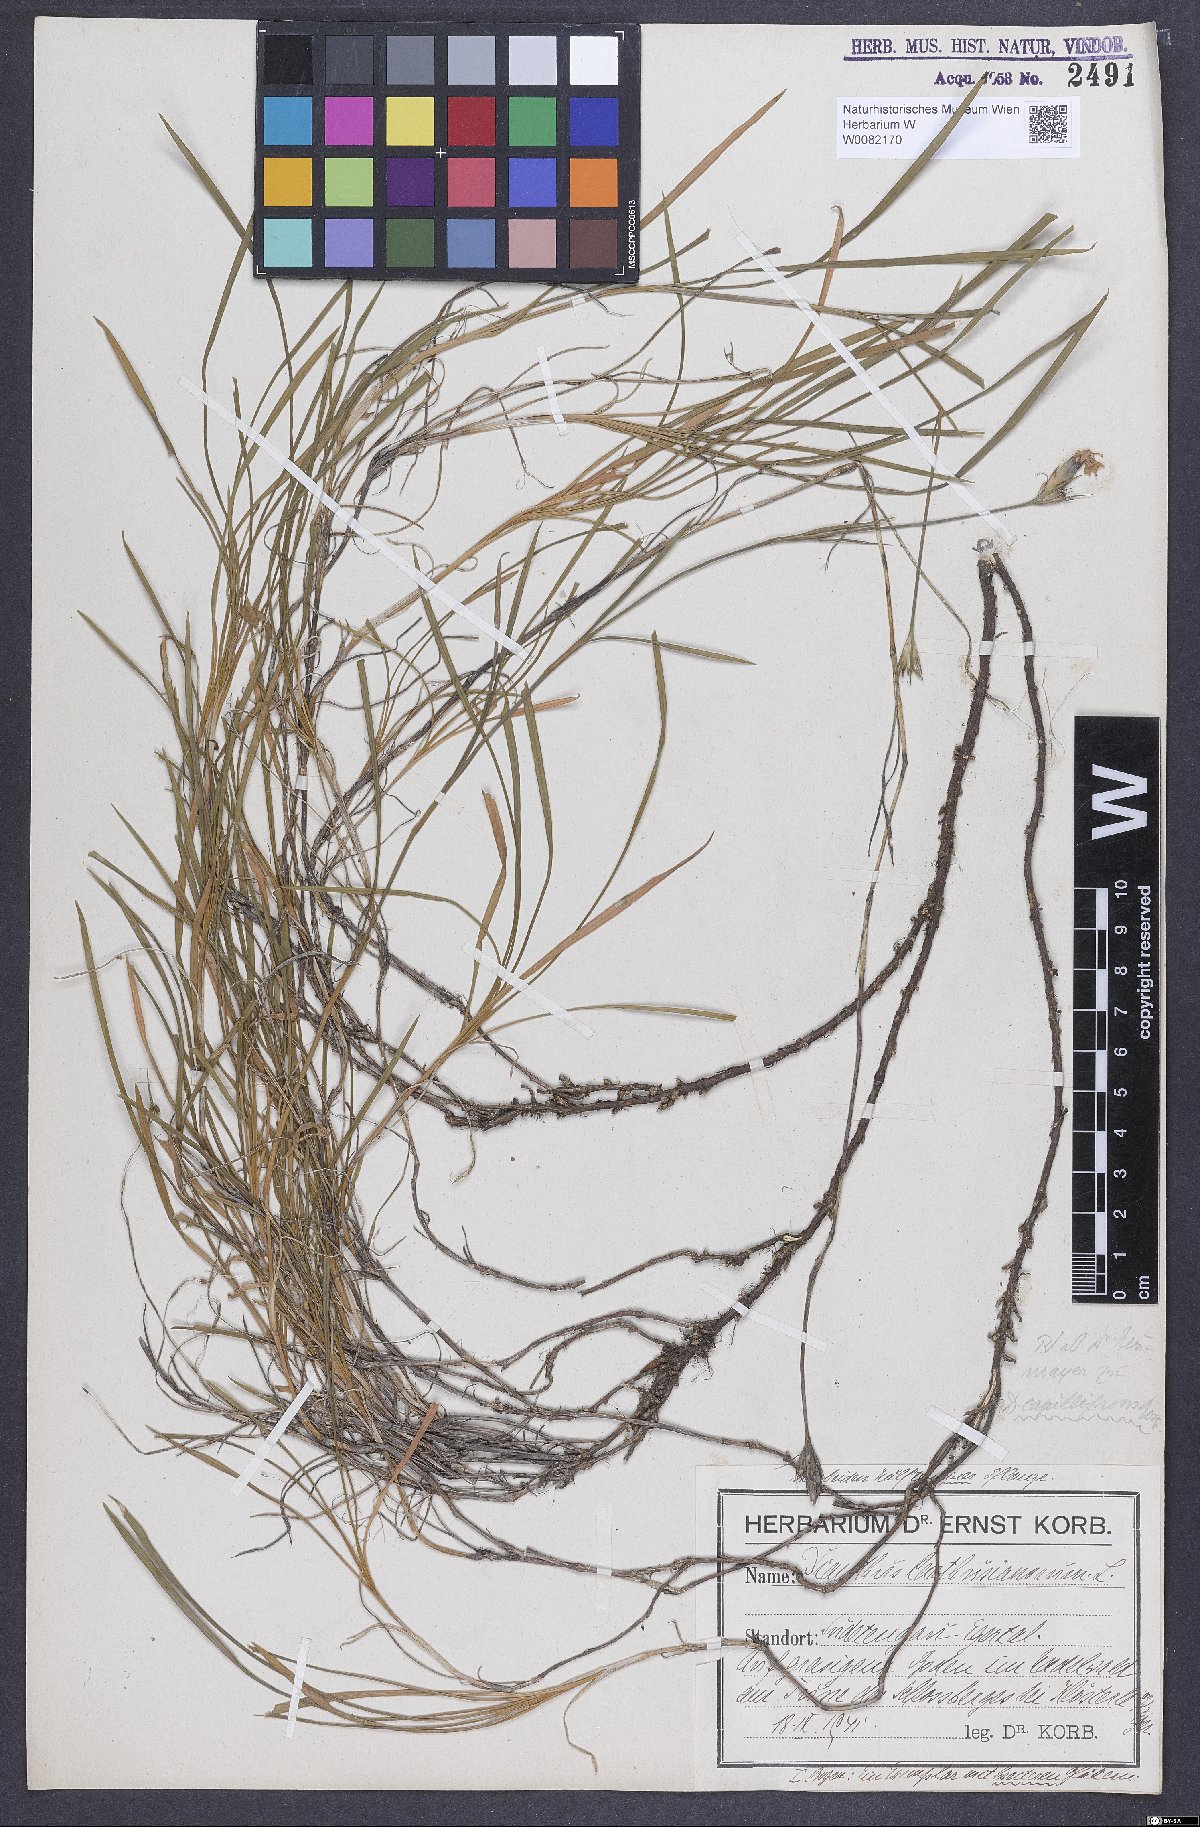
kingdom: Plantae
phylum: Tracheophyta
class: Magnoliopsida
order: Caryophyllales
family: Caryophyllaceae
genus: Dianthus
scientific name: Dianthus carthusianorum
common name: Carthusian pink
